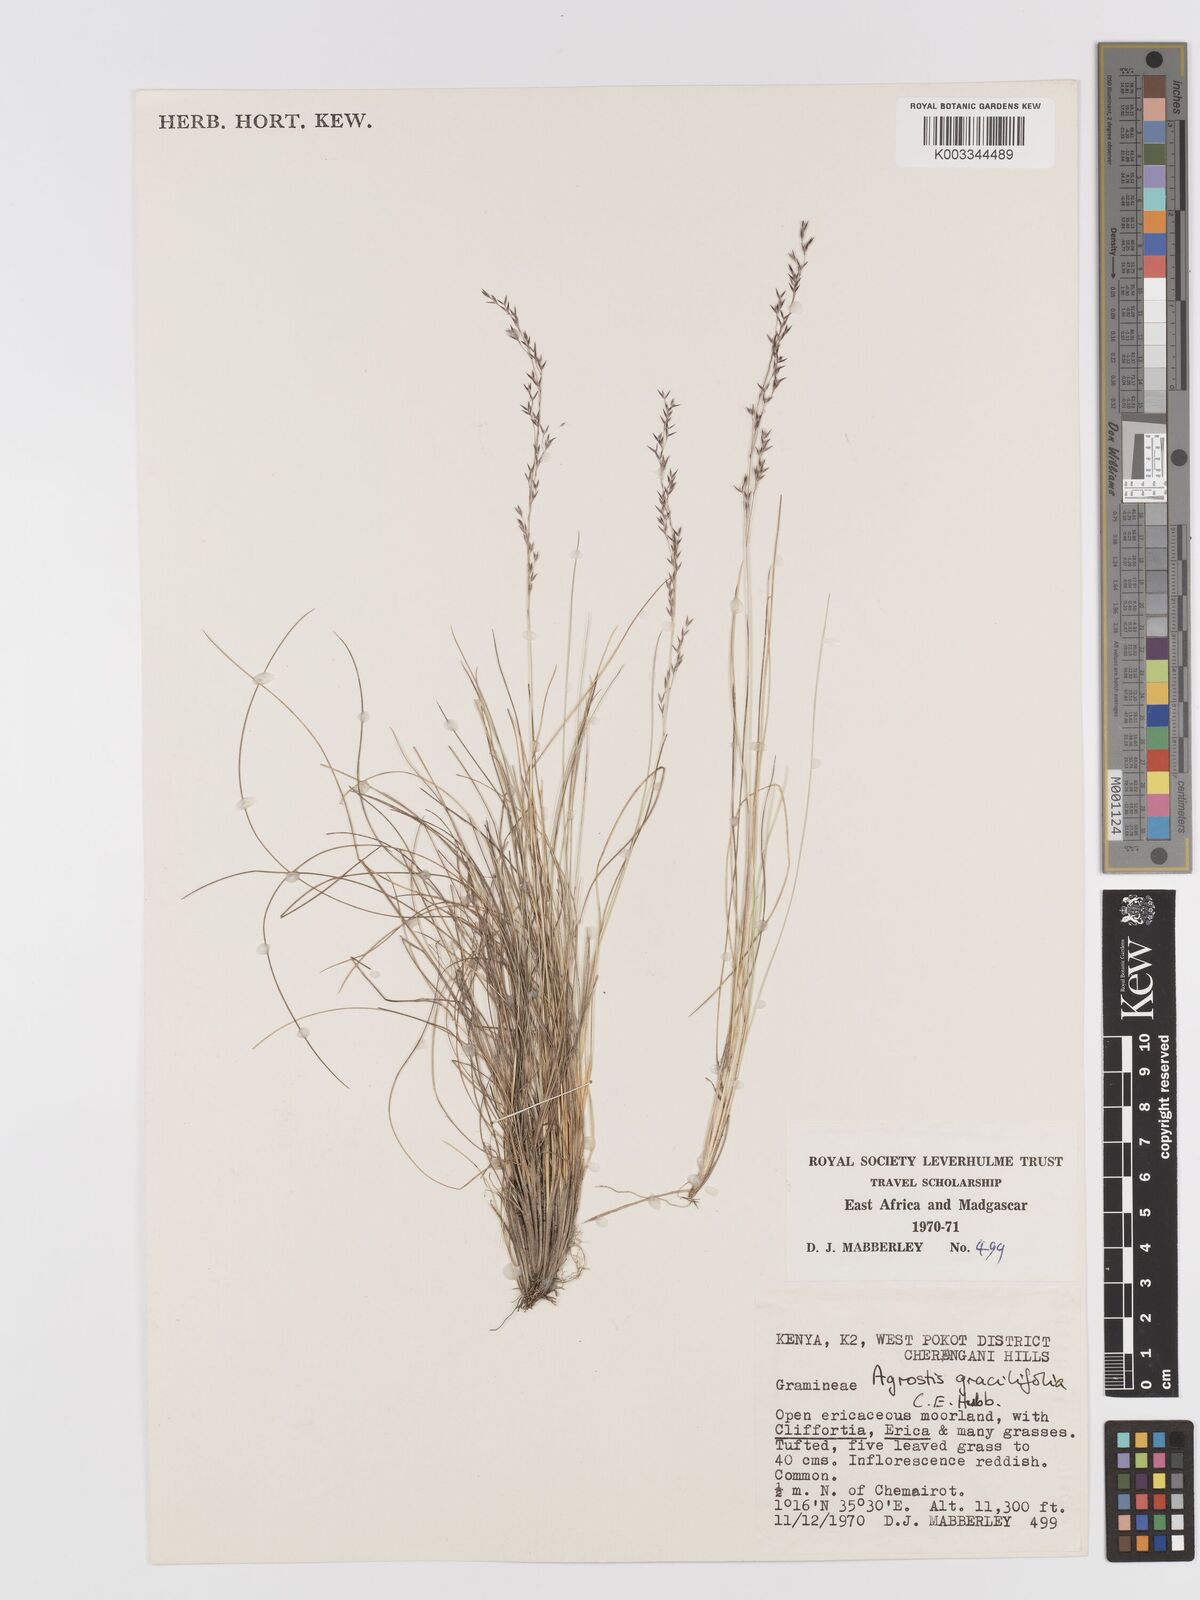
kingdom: Plantae
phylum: Tracheophyta
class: Liliopsida
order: Poales
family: Poaceae
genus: Agrostis
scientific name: Agrostis gracilifolia
